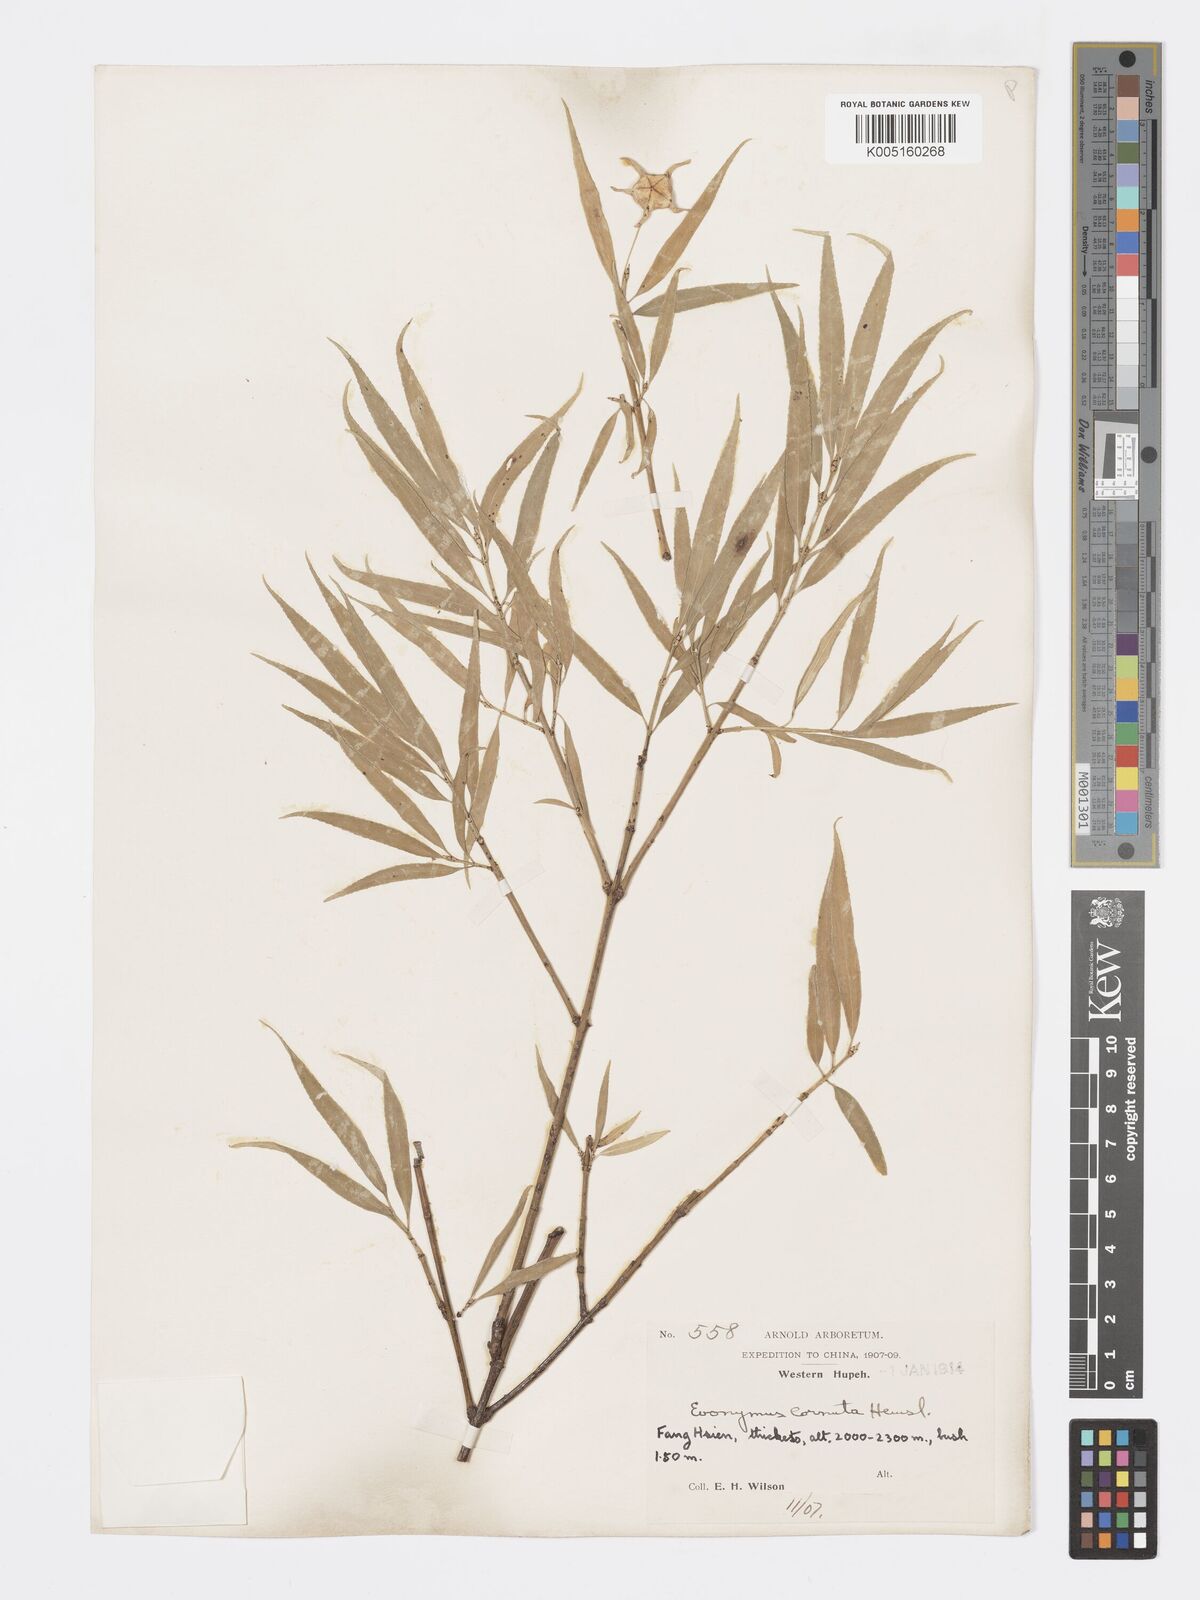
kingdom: Plantae
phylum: Tracheophyta
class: Magnoliopsida
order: Celastrales
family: Celastraceae
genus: Euonymus
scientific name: Euonymus cornutus
